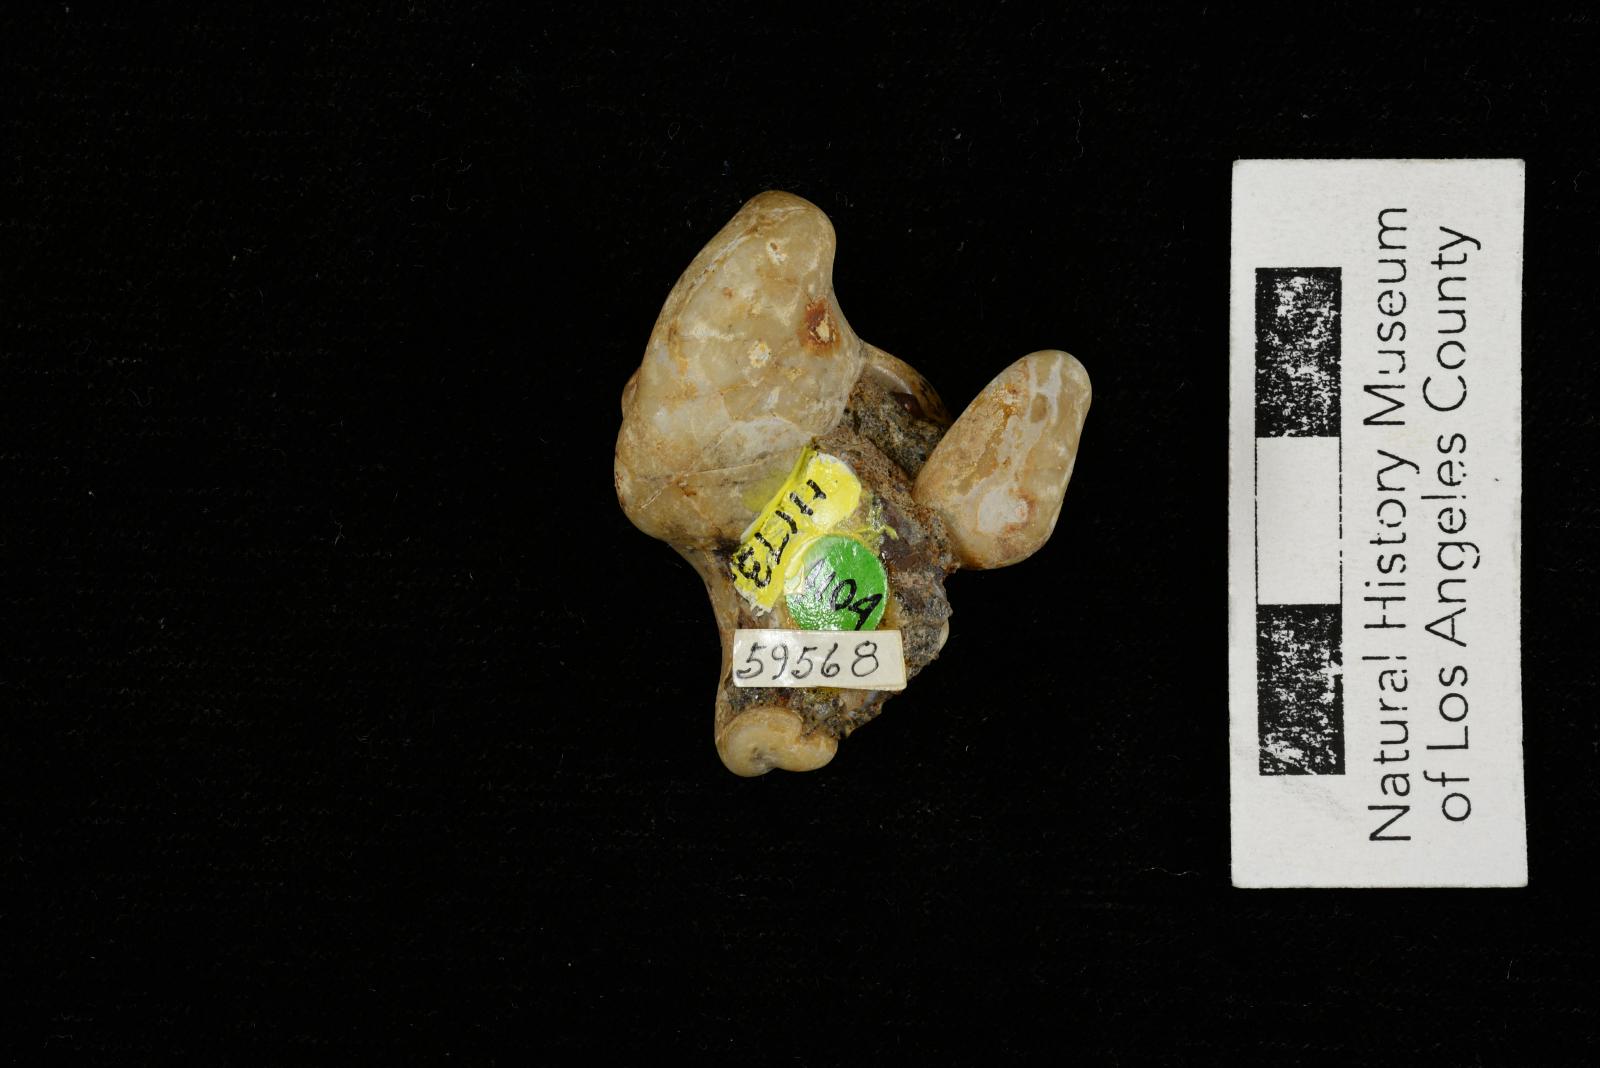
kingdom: Animalia
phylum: Mollusca
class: Gastropoda
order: Littorinimorpha
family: Aporrhaidae
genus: Pyktes
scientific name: Pyktes aspris
